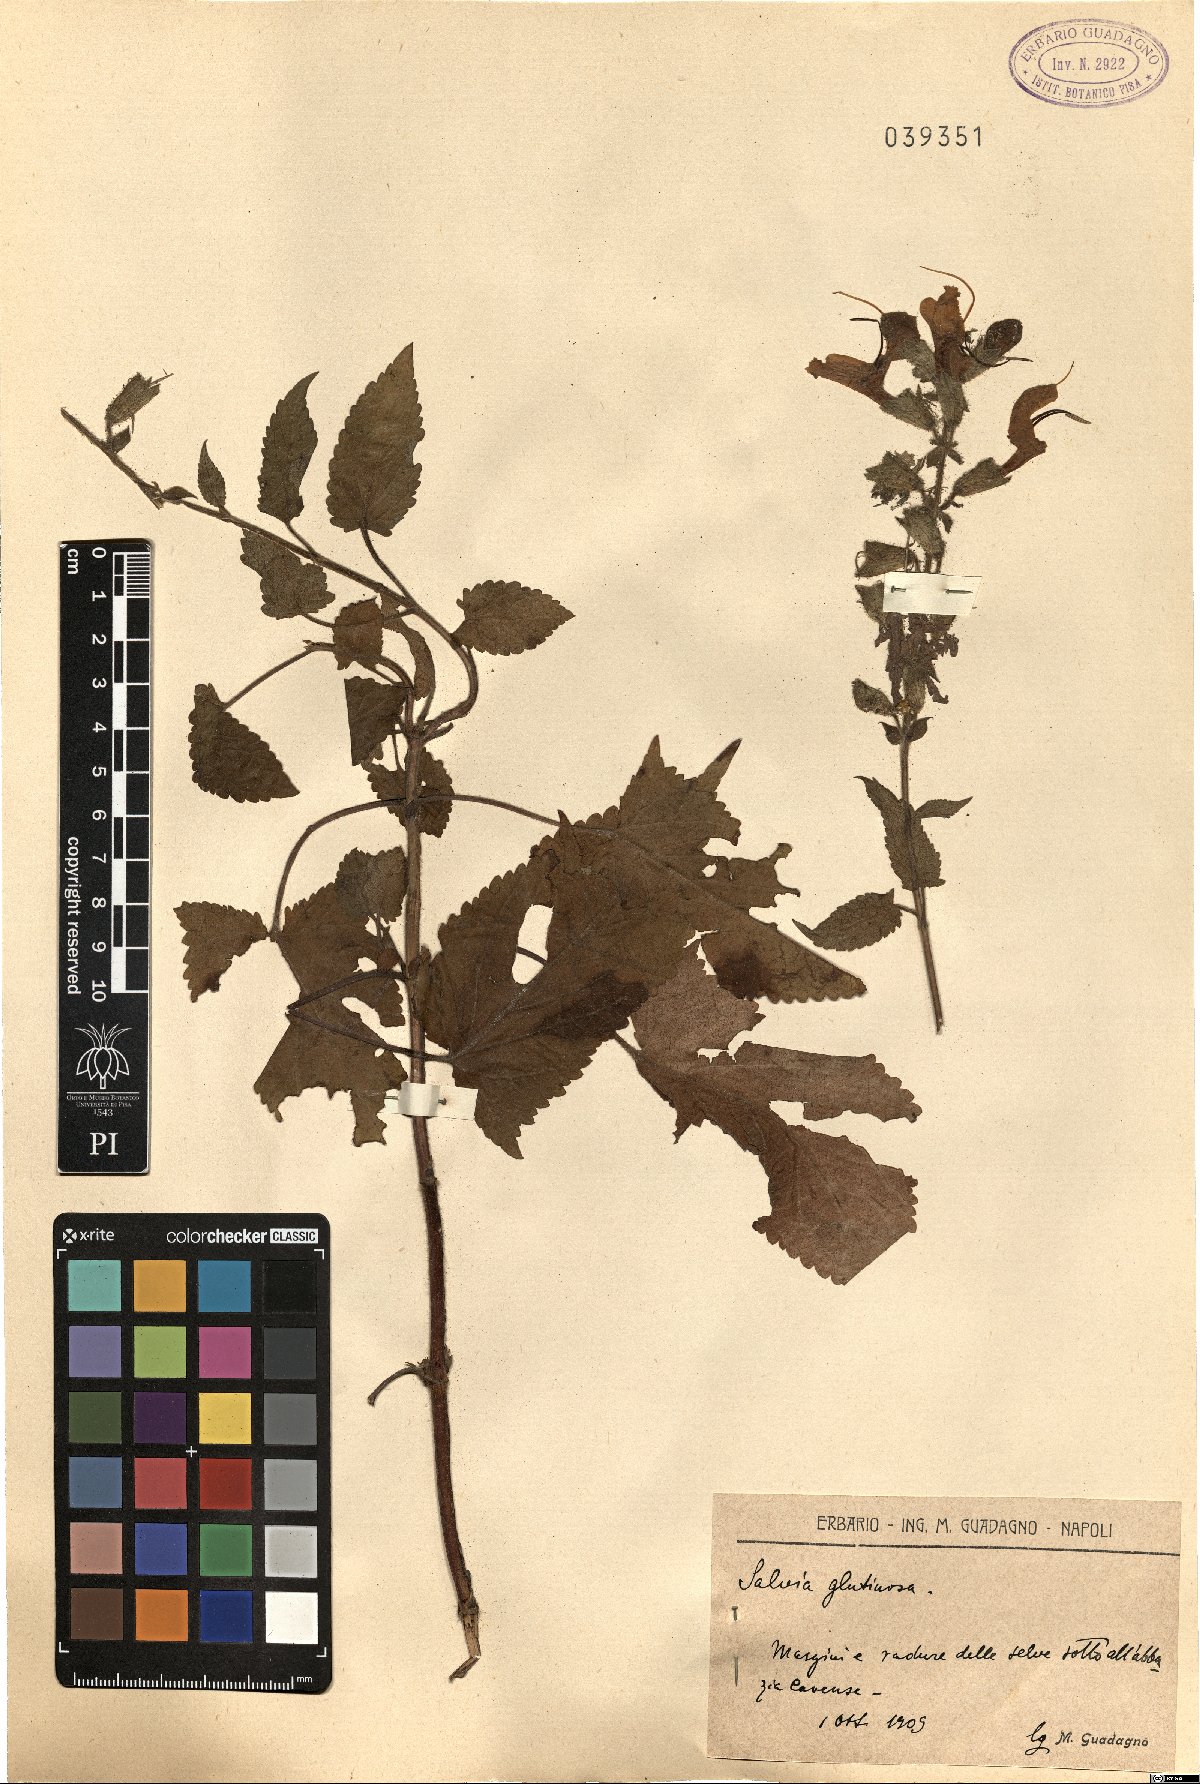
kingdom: Plantae
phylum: Tracheophyta
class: Magnoliopsida
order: Lamiales
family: Lamiaceae
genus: Salvia
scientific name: Salvia glutinosa
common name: Sticky clary
